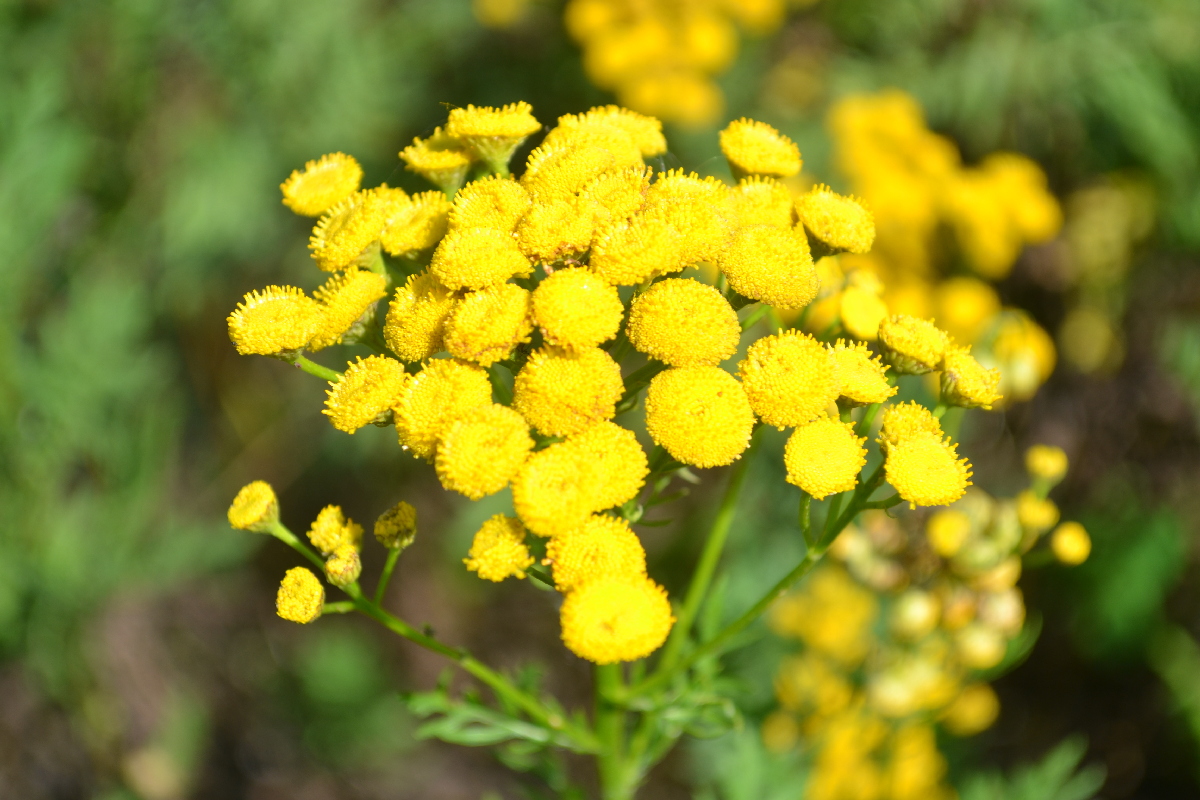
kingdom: Plantae
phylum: Tracheophyta
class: Magnoliopsida
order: Asterales
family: Asteraceae
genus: Tanacetum
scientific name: Tanacetum vulgare
